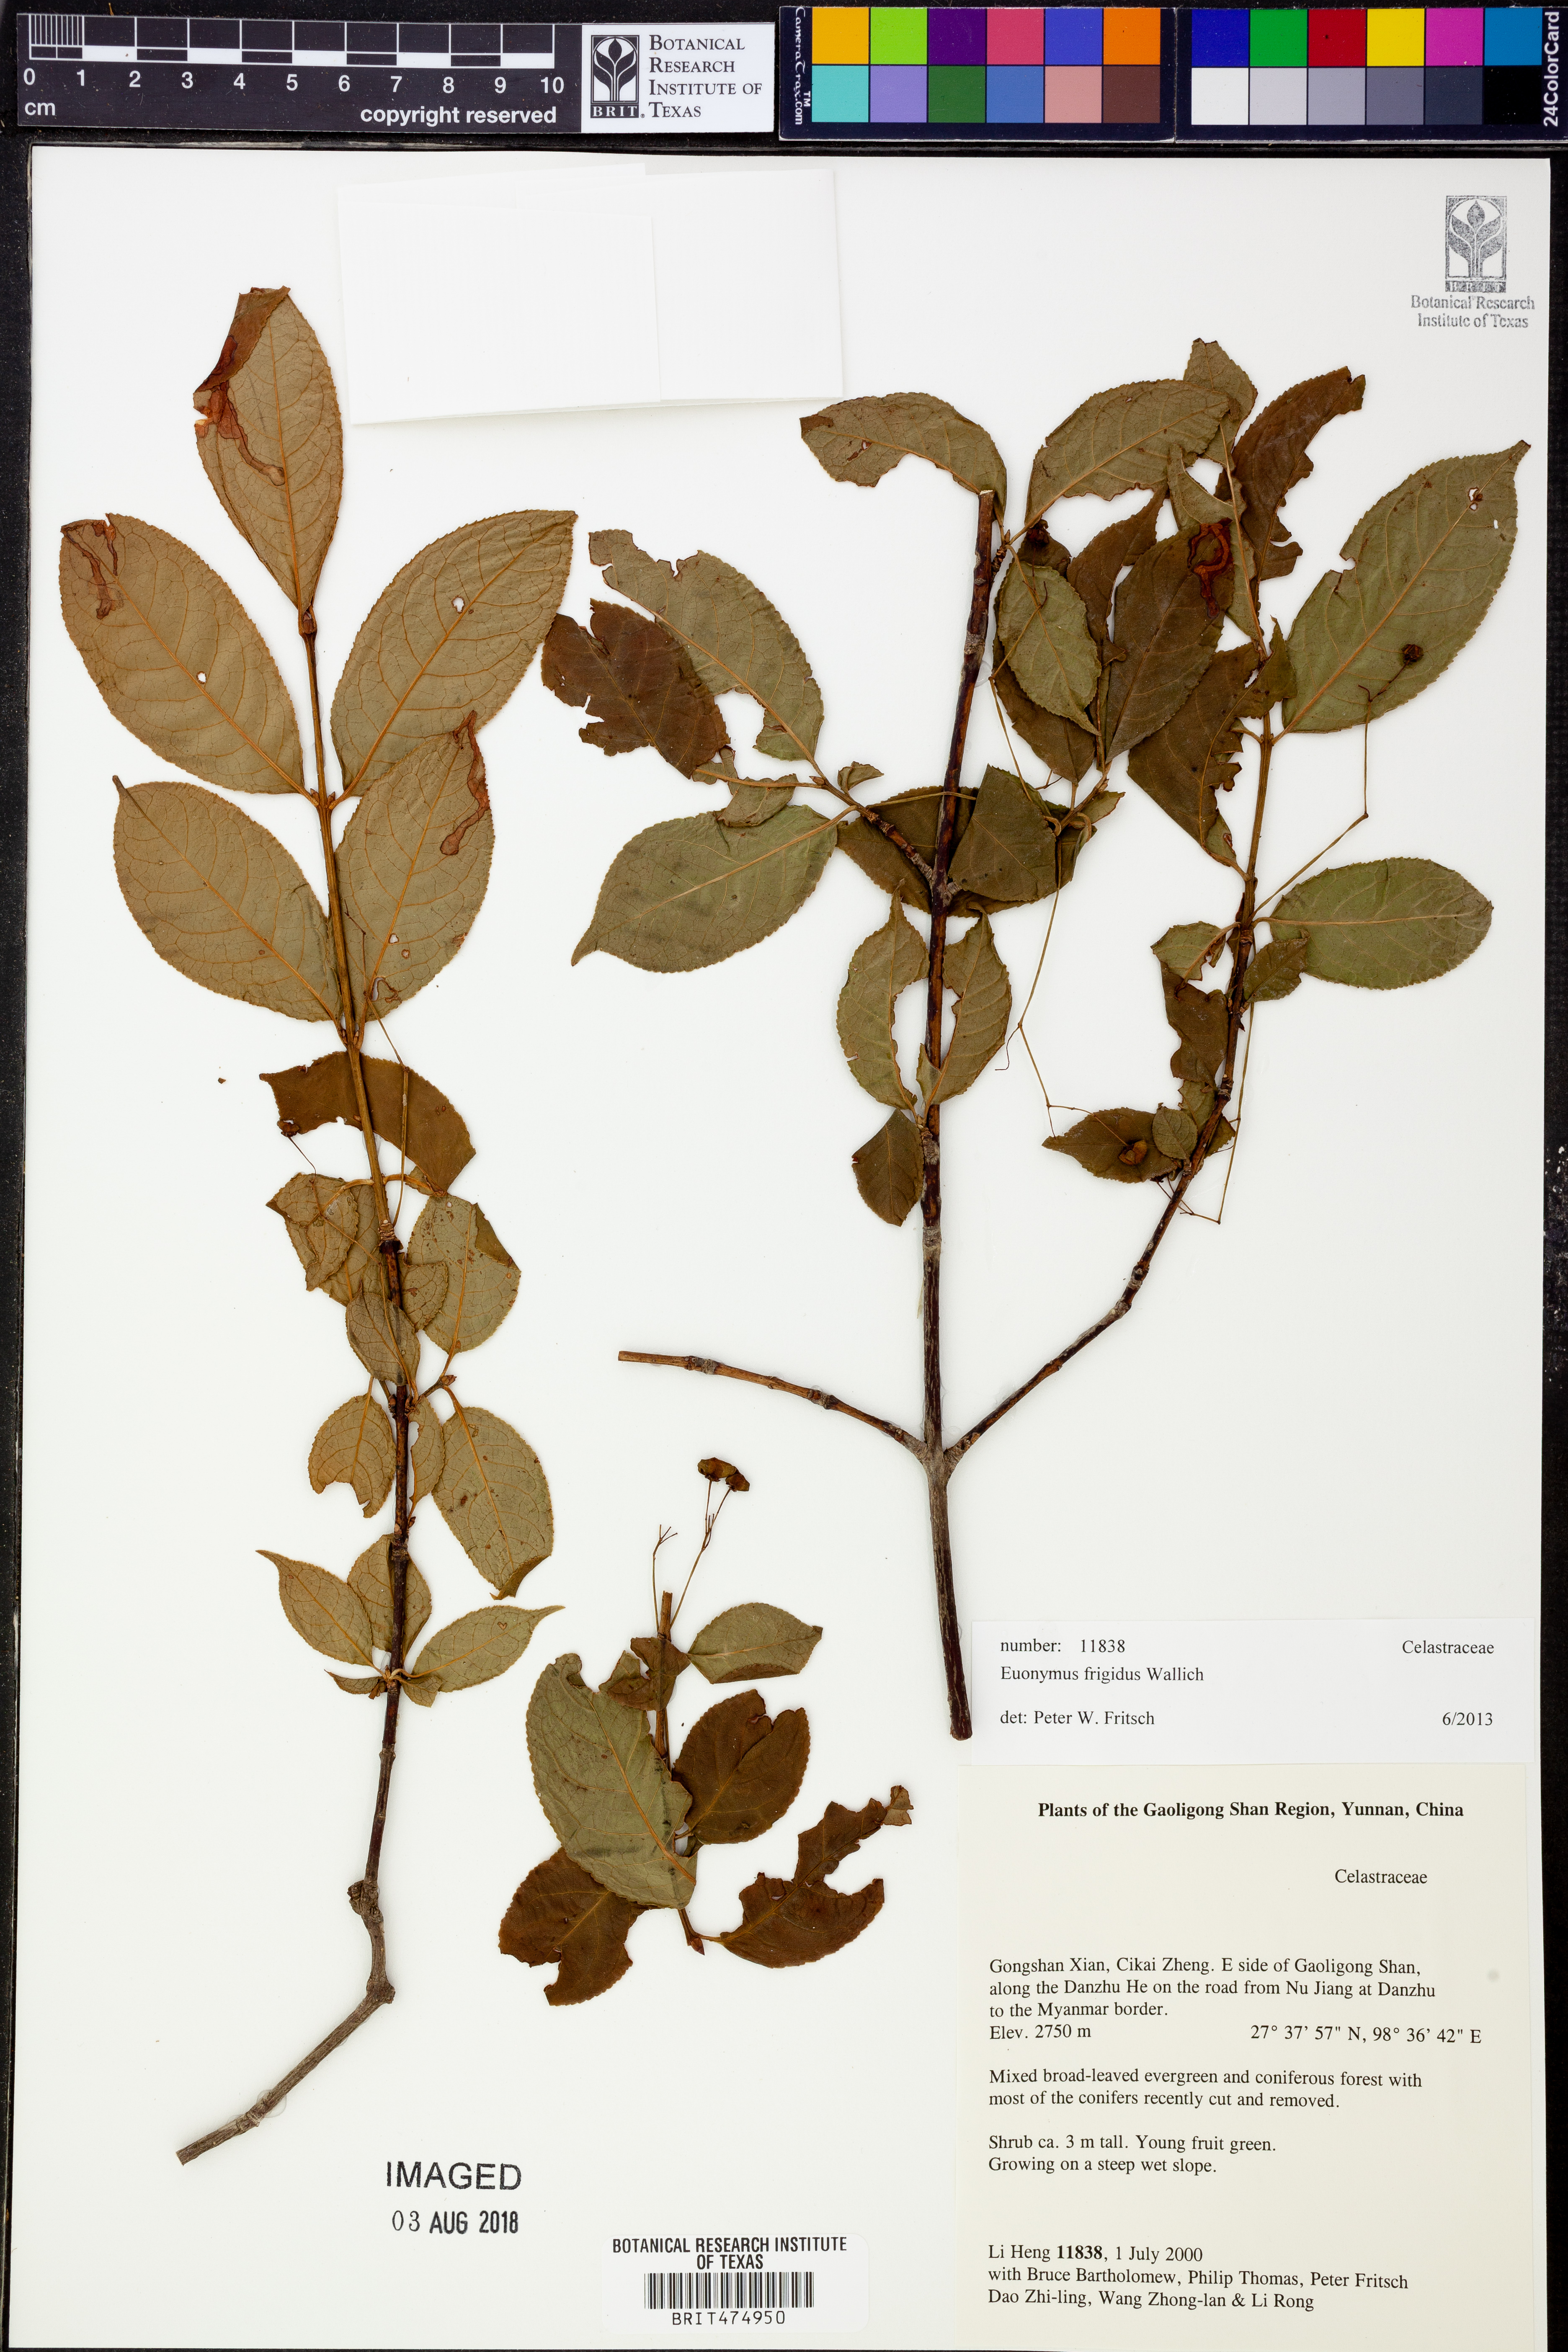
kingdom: Plantae
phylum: Tracheophyta
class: Magnoliopsida
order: Celastrales
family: Celastraceae
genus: Euonymus
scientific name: Euonymus frigidus
